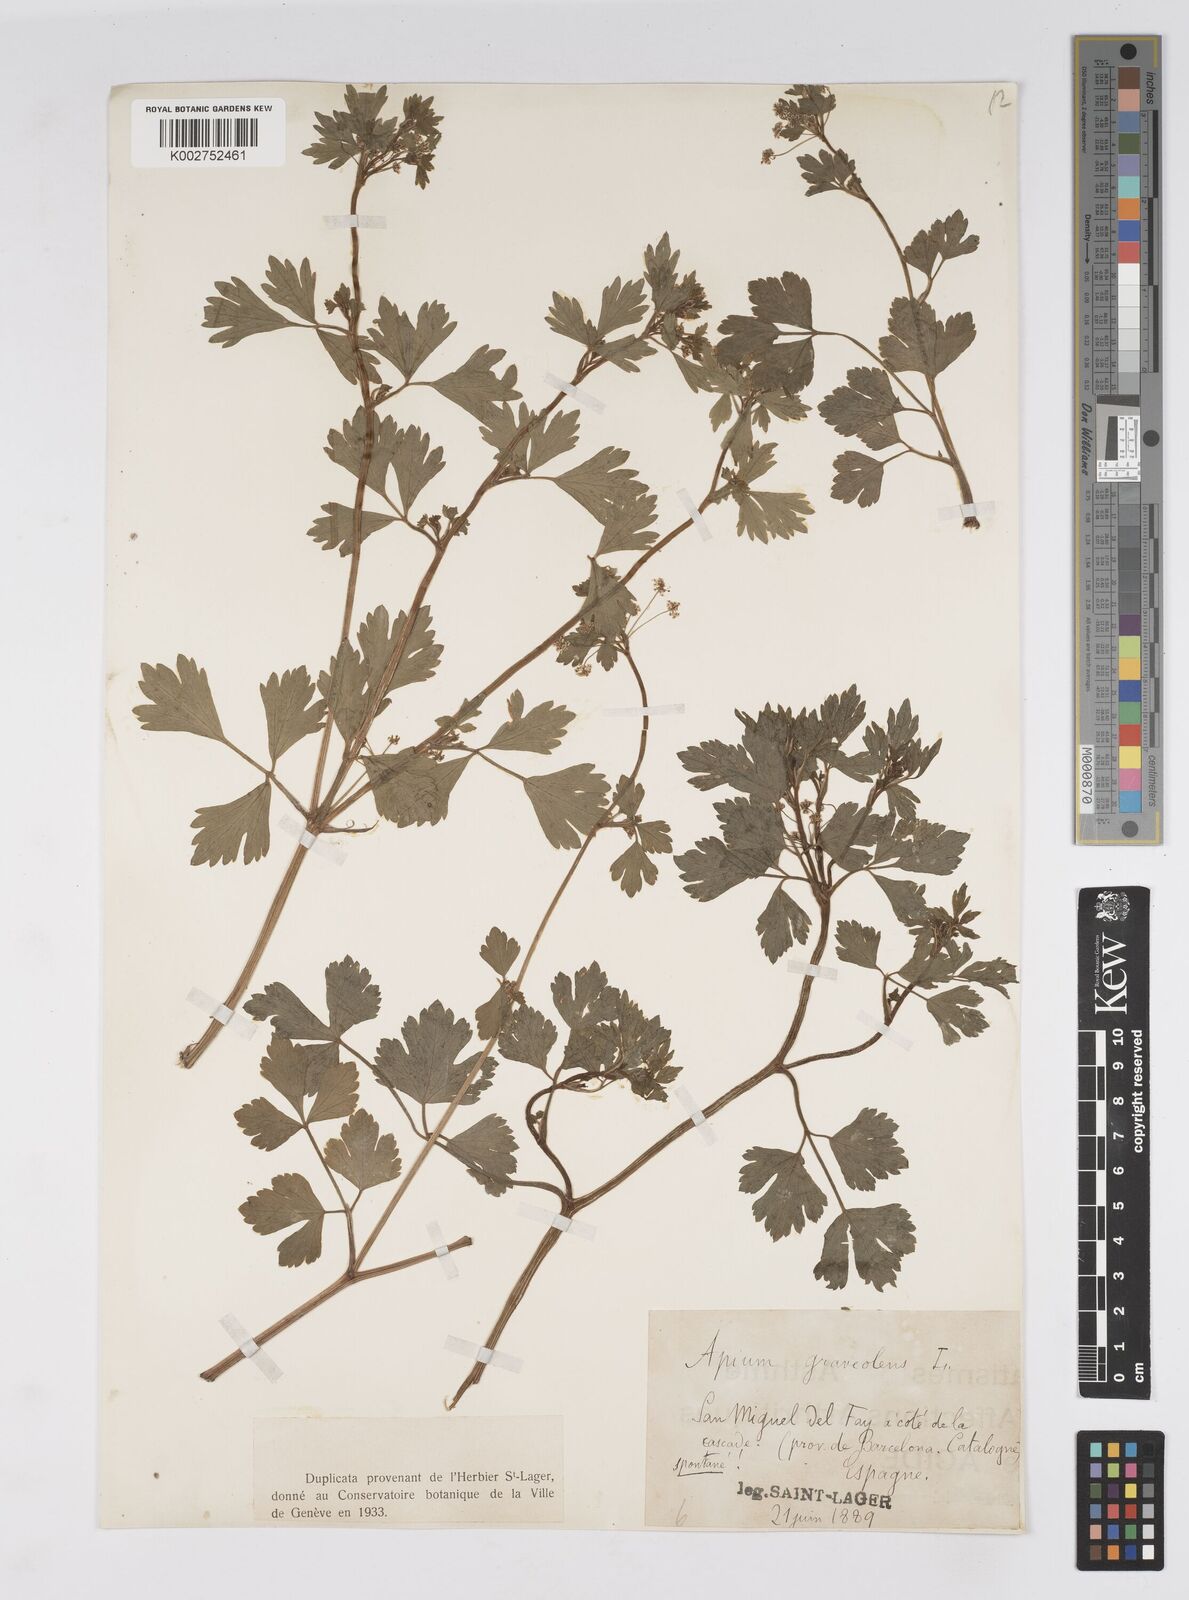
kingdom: Plantae
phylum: Tracheophyta
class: Magnoliopsida
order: Apiales
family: Apiaceae
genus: Apium
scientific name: Apium graveolens
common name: Wild celery
